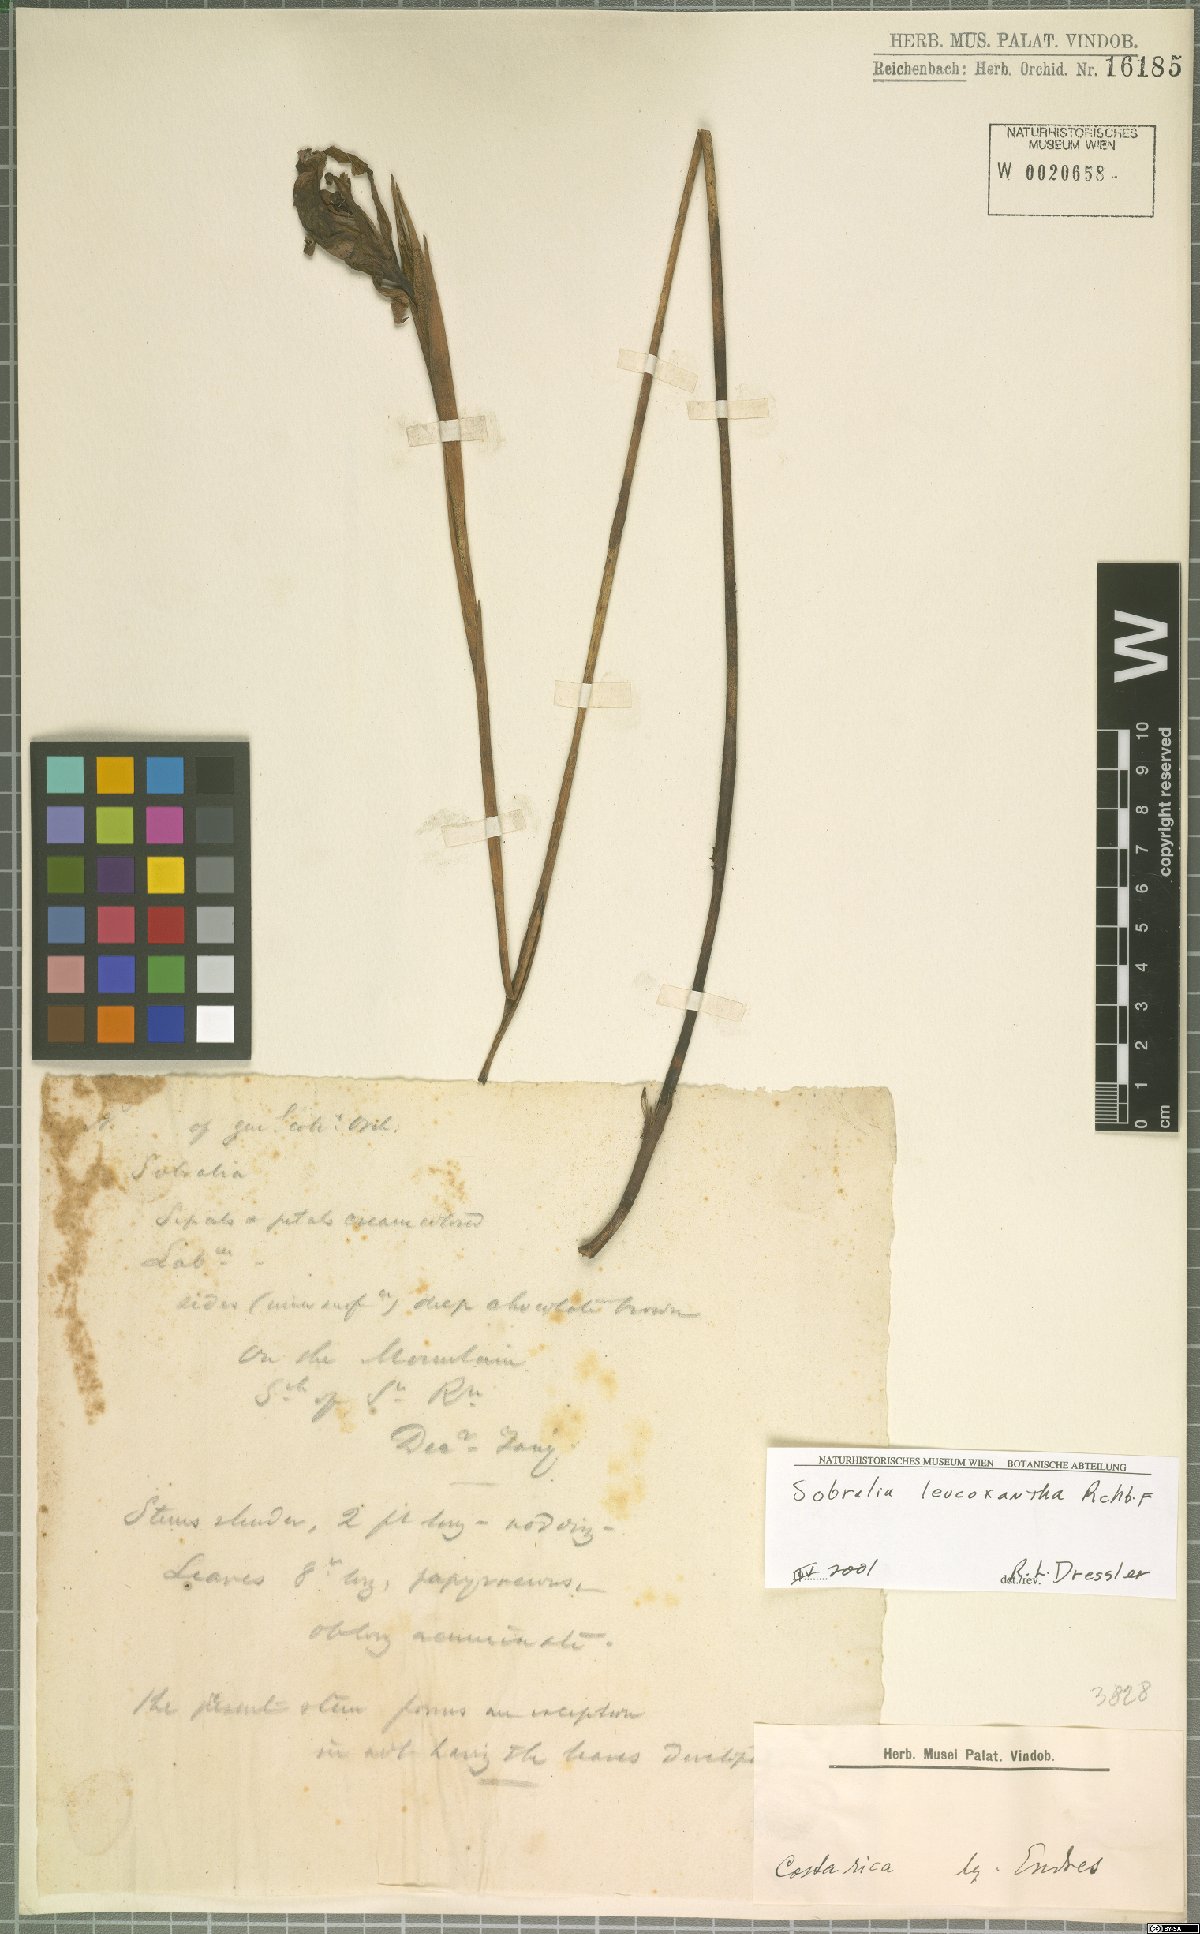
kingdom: Plantae
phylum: Tracheophyta
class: Liliopsida
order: Asparagales
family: Orchidaceae
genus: Sobralia
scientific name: Sobralia leucoxantha
